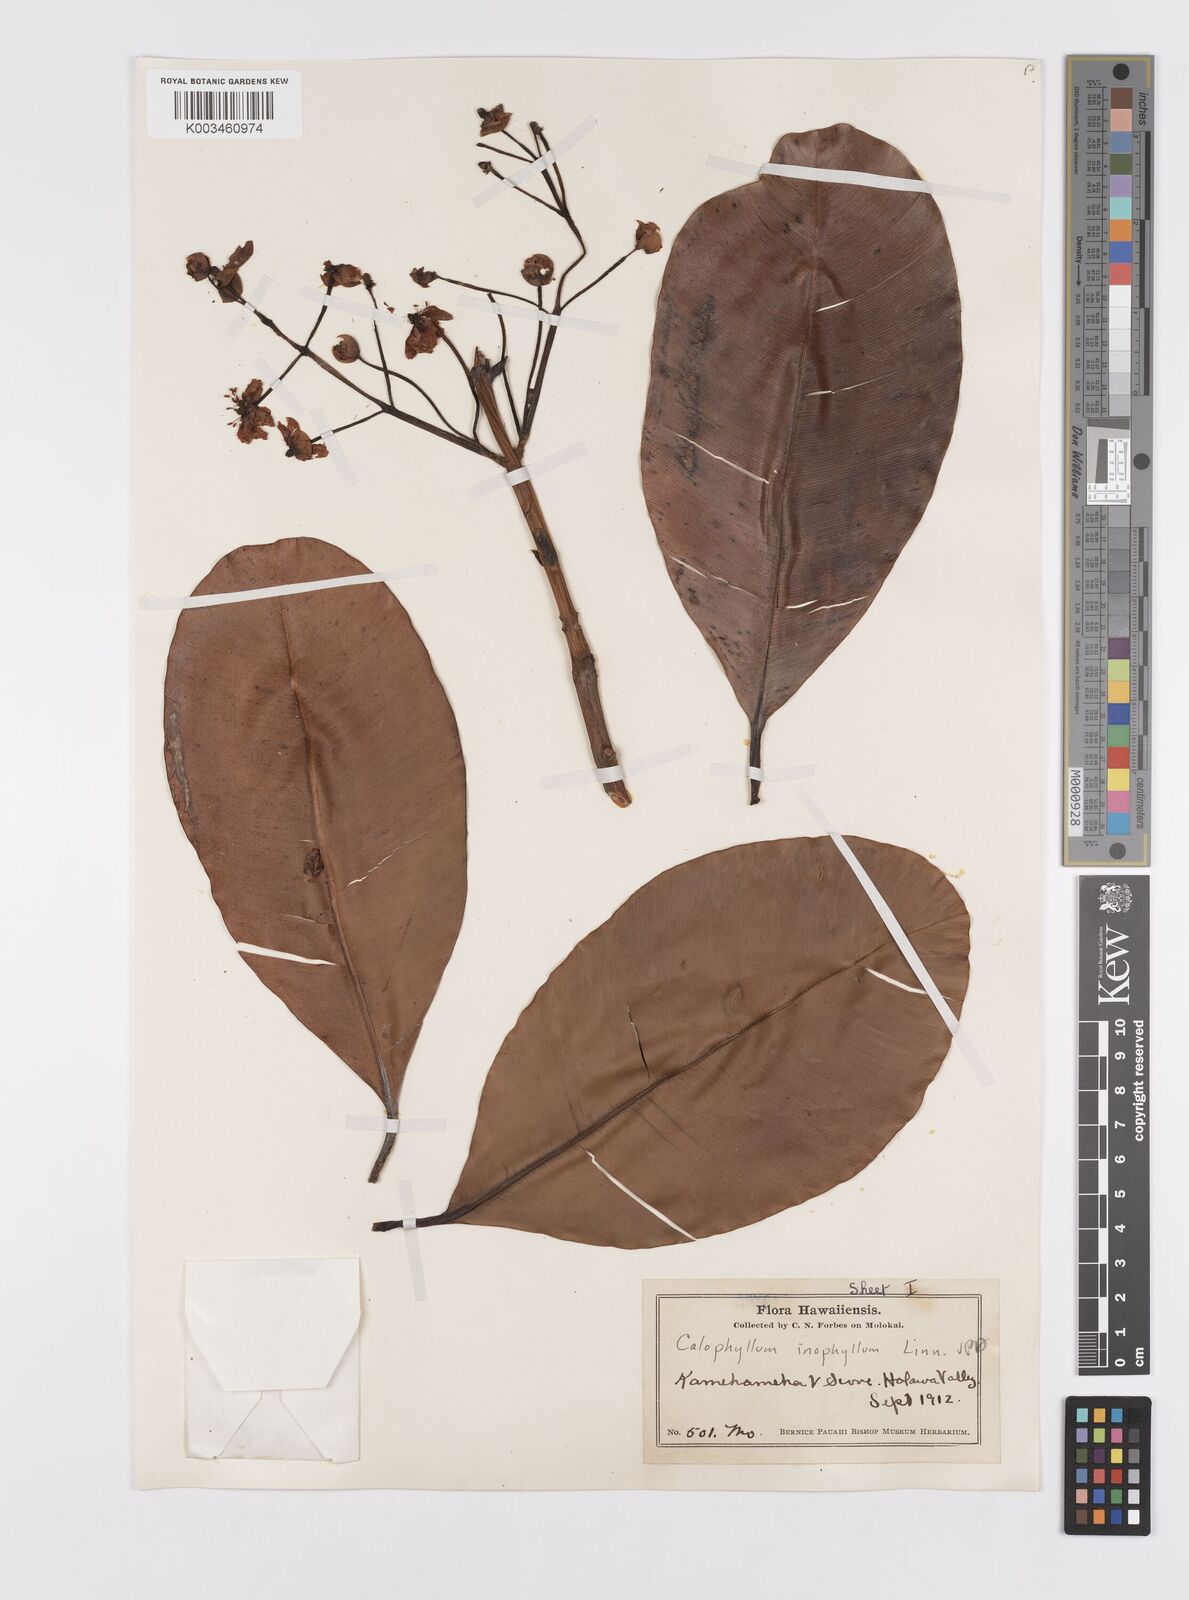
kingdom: Plantae
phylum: Tracheophyta
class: Magnoliopsida
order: Malpighiales
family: Calophyllaceae
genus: Calophyllum
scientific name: Calophyllum inophyllum
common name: Alexandrian laurel
